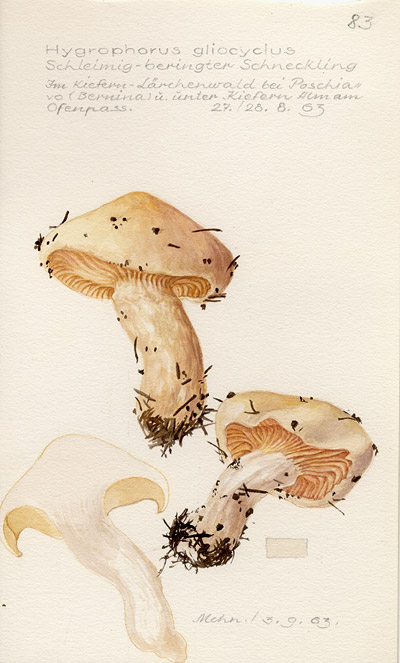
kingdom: Fungi
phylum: Basidiomycota
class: Agaricomycetes
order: Agaricales
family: Hygrophoraceae
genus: Hygrophorus
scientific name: Hygrophorus ligatus
